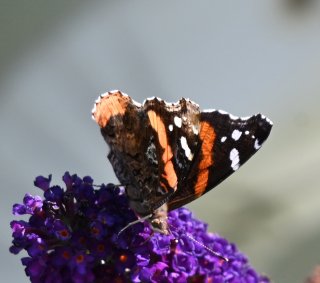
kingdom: Animalia
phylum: Arthropoda
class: Insecta
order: Lepidoptera
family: Nymphalidae
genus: Vanessa
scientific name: Vanessa atalanta
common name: Red Admiral
